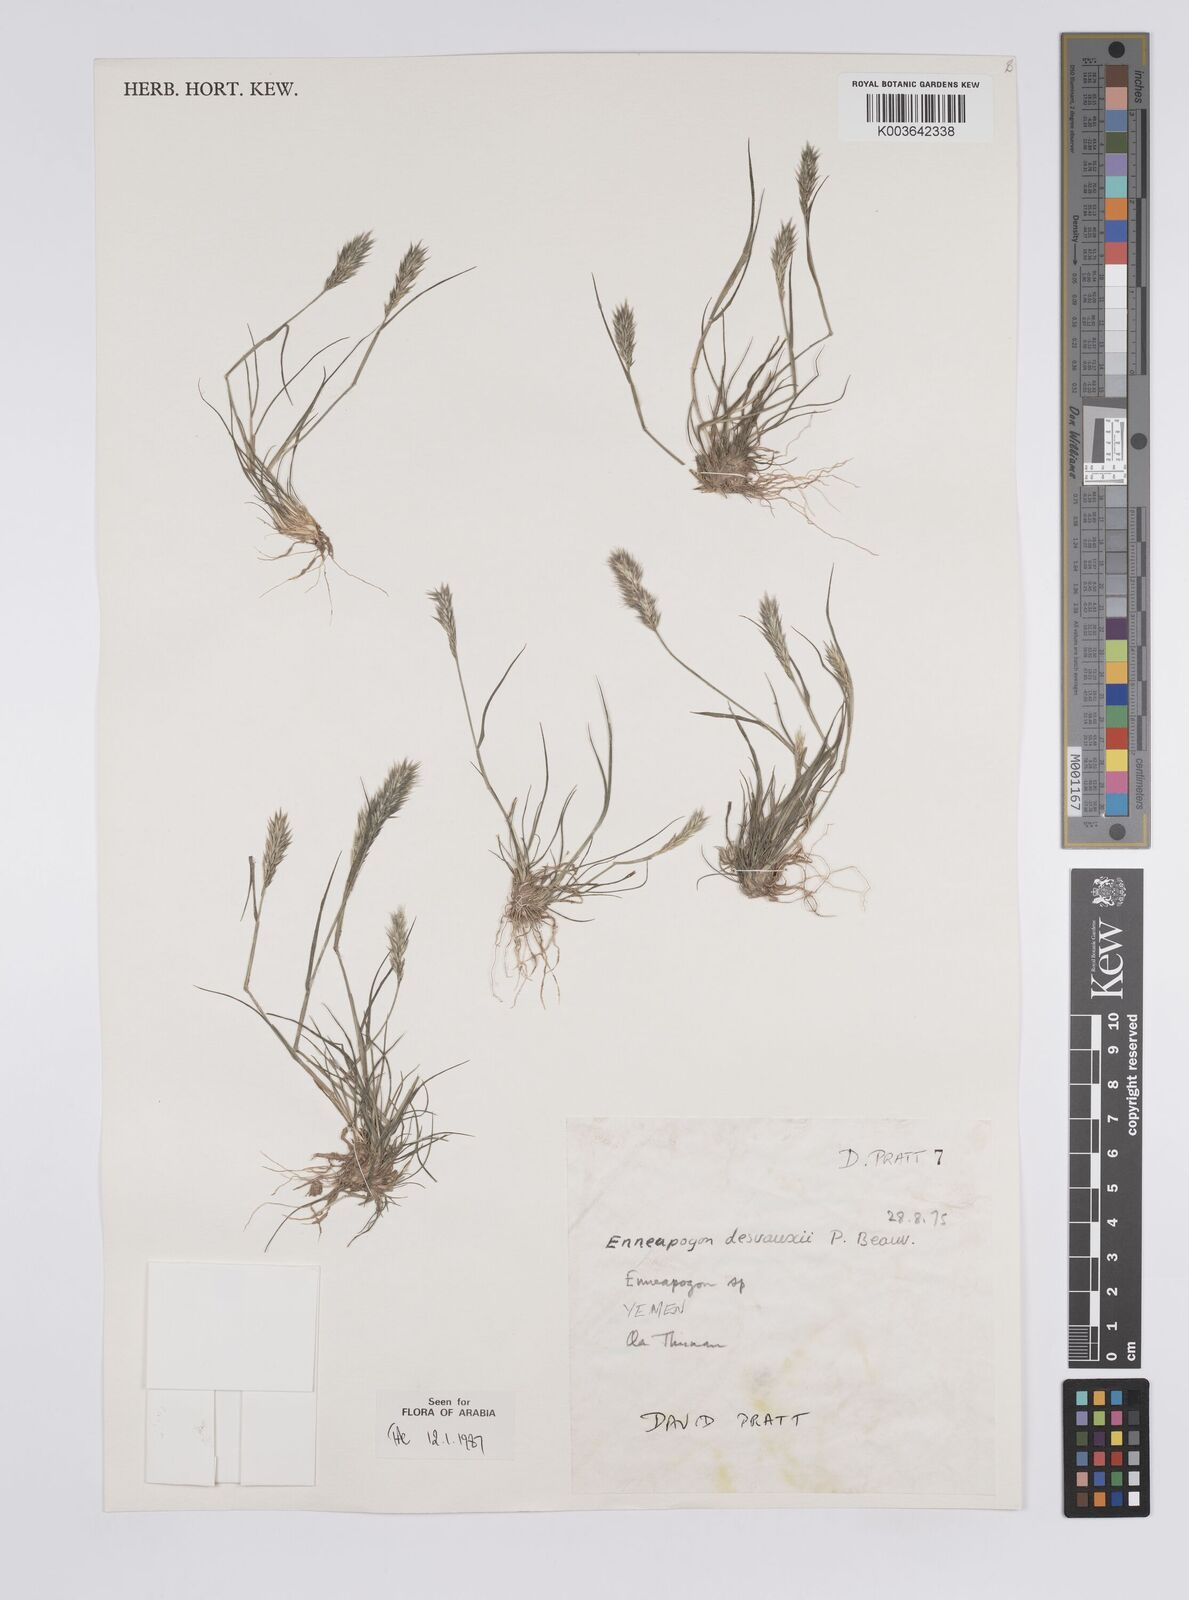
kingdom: Plantae
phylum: Tracheophyta
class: Liliopsida
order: Poales
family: Poaceae
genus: Enneapogon
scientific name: Enneapogon desvauxii
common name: Feather pappus grass
